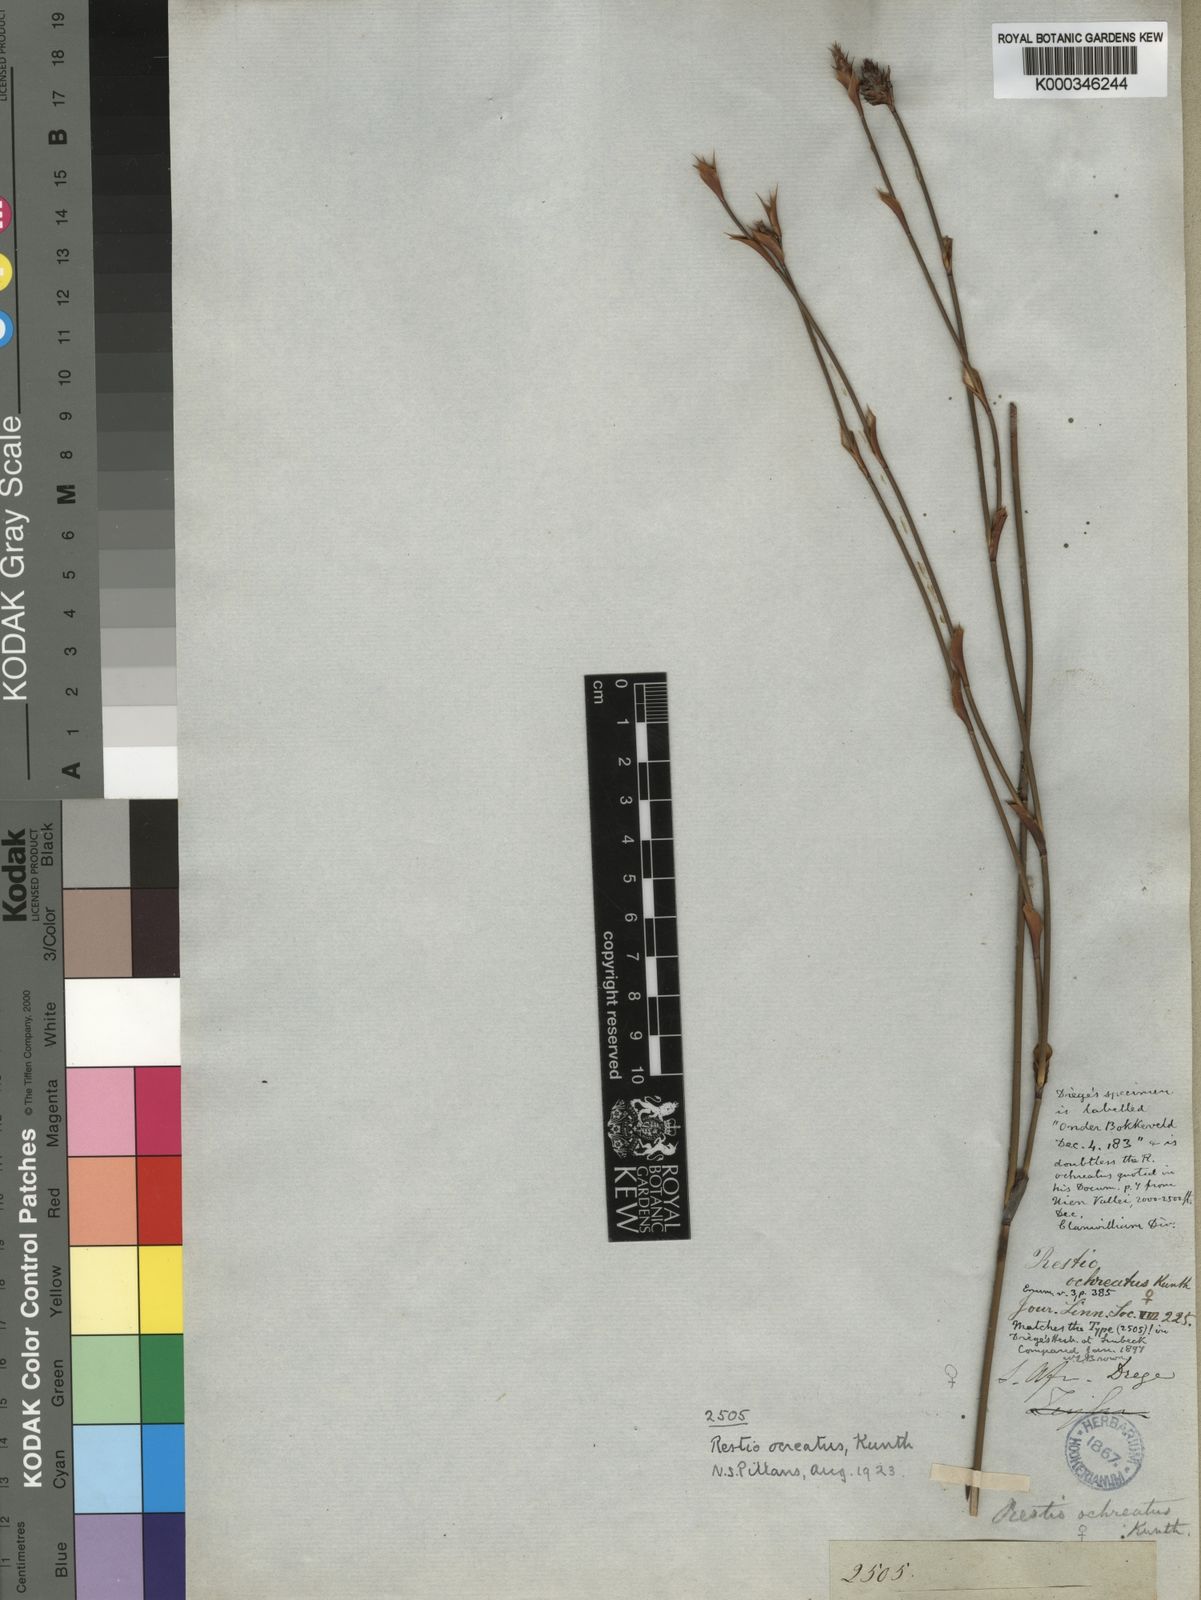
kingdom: Plantae
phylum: Tracheophyta
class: Liliopsida
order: Poales
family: Restionaceae
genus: Restio
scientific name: Restio ocreatus
